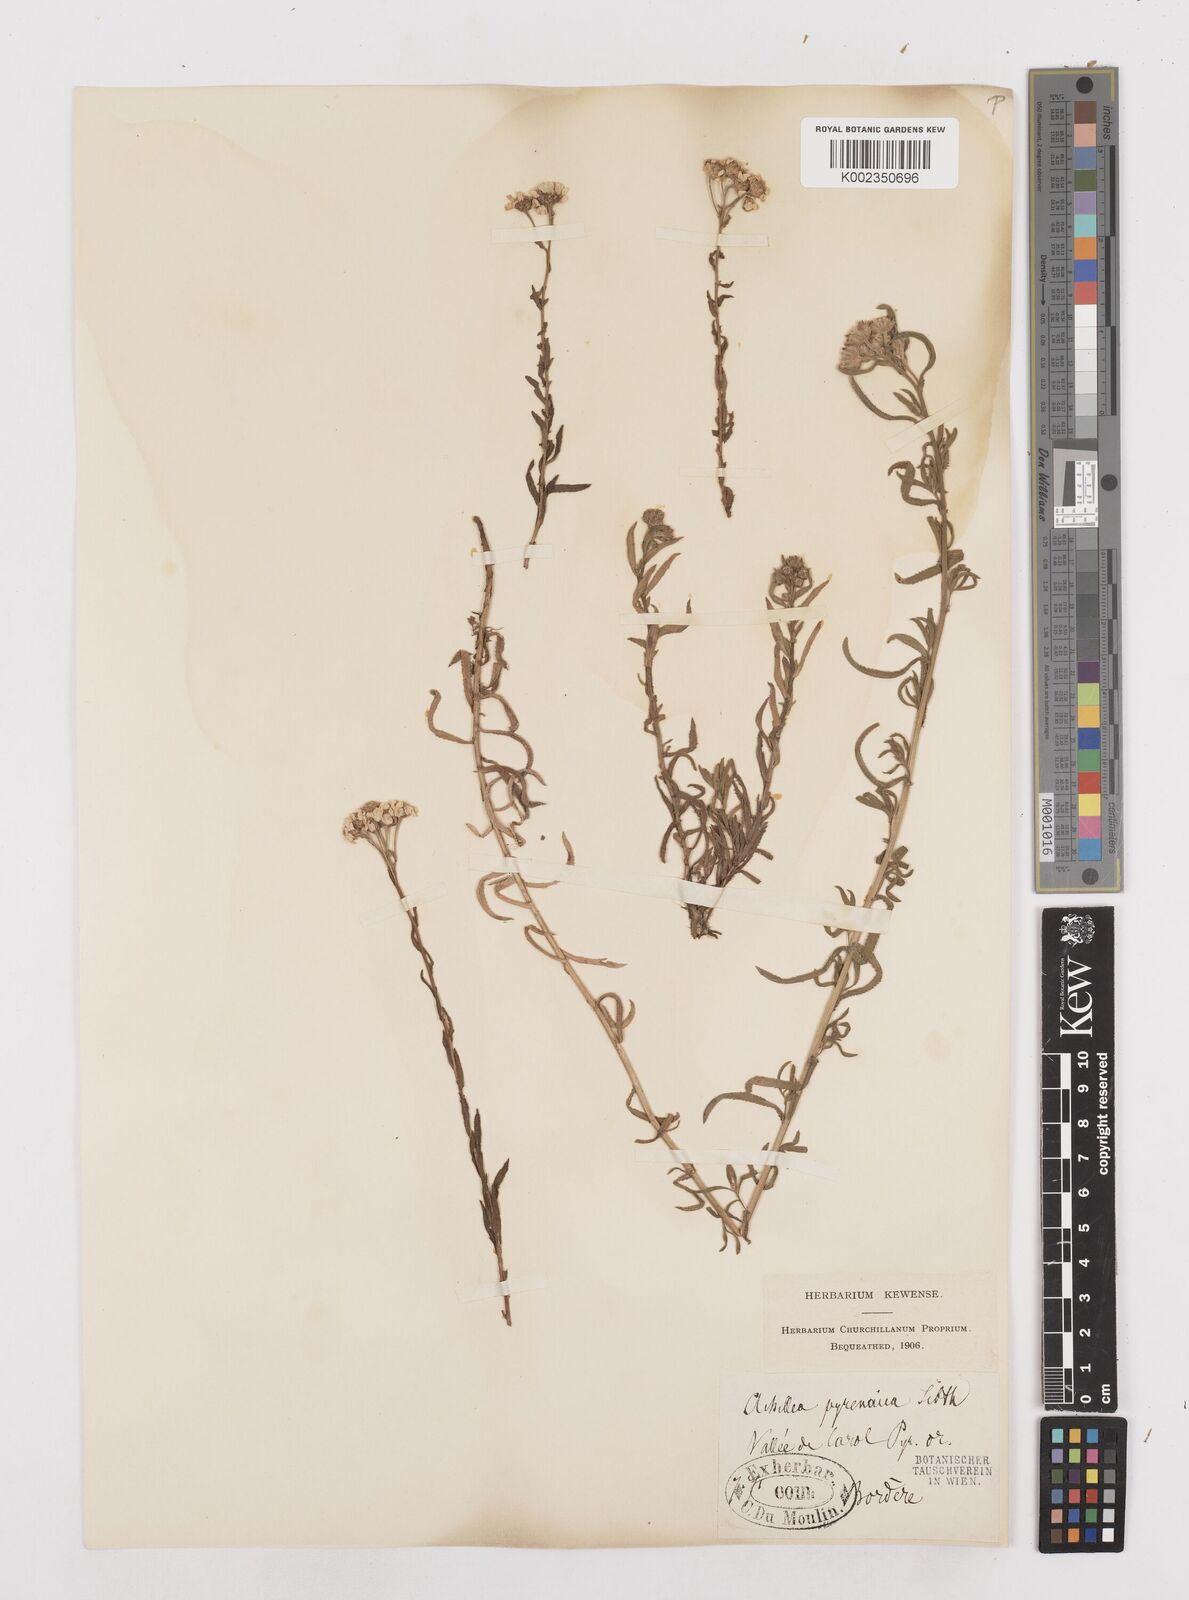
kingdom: Plantae
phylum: Tracheophyta
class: Magnoliopsida
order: Asterales
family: Asteraceae
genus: Achillea
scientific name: Achillea pyrenaica
